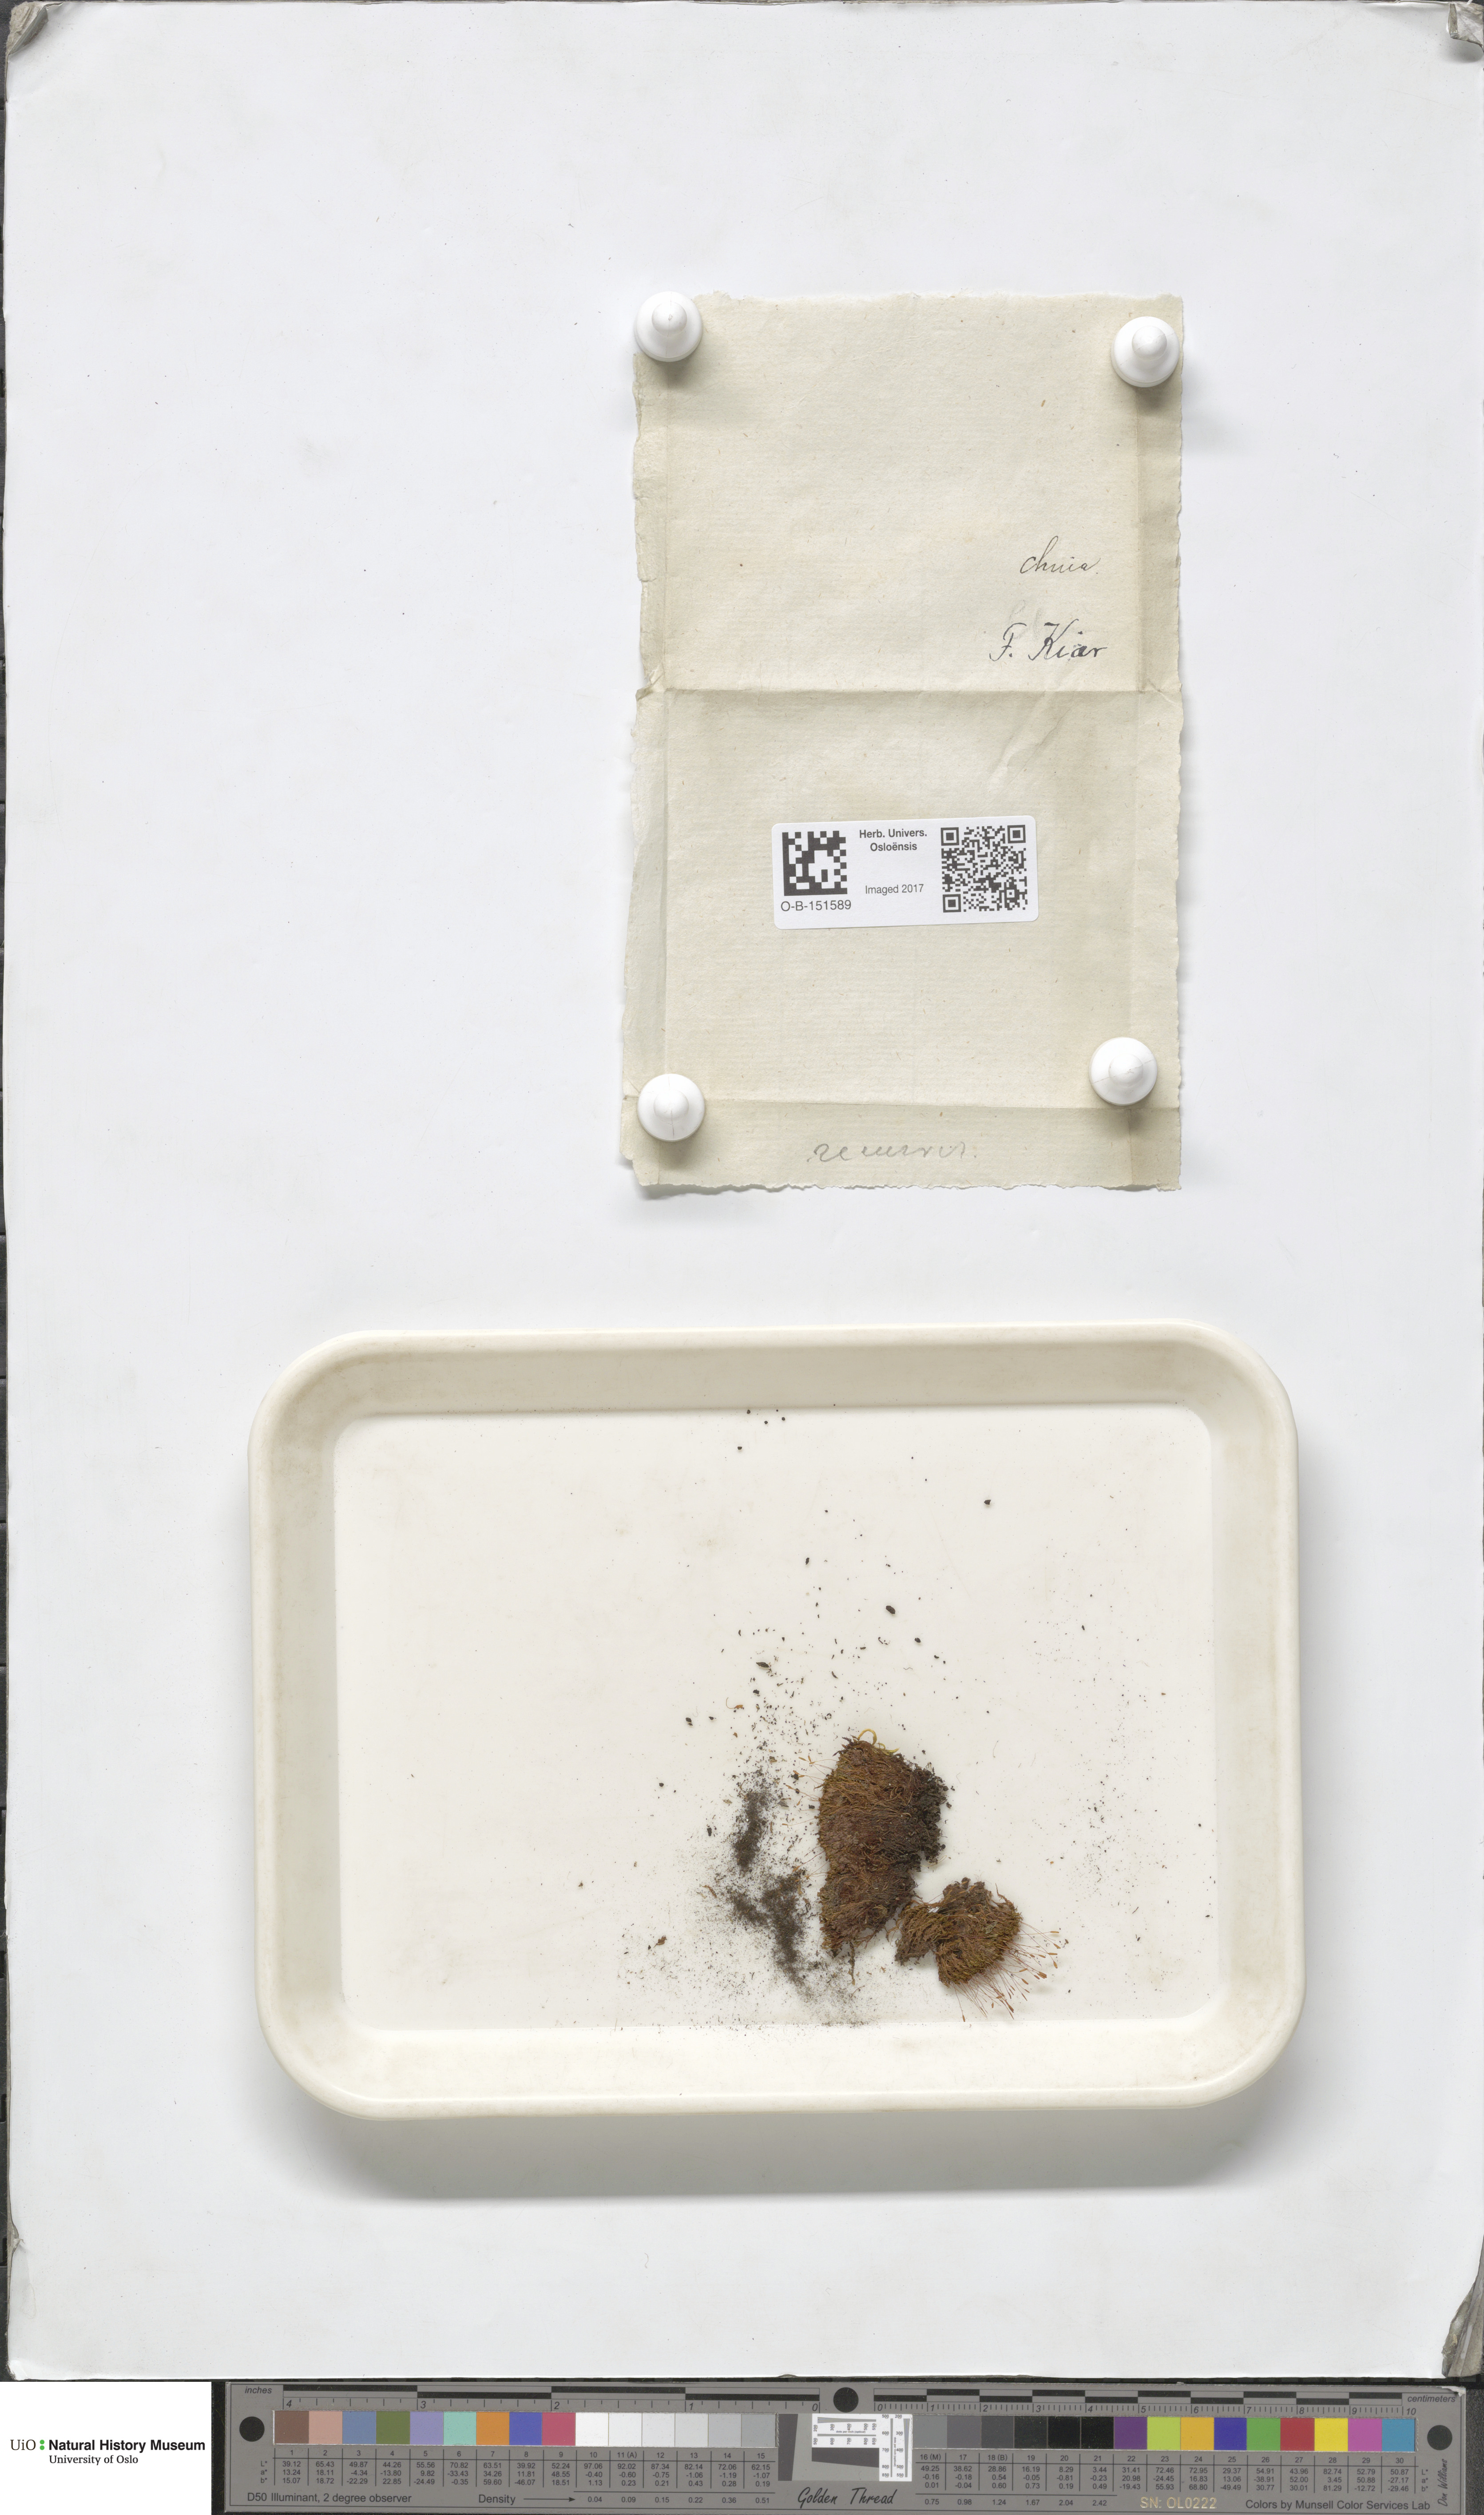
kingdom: Plantae
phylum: Bryophyta
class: Bryopsida
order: Pottiales
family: Pottiaceae
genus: Bryoerythrophyllum
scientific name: Bryoerythrophyllum recurvirostrum
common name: Red beard moss
